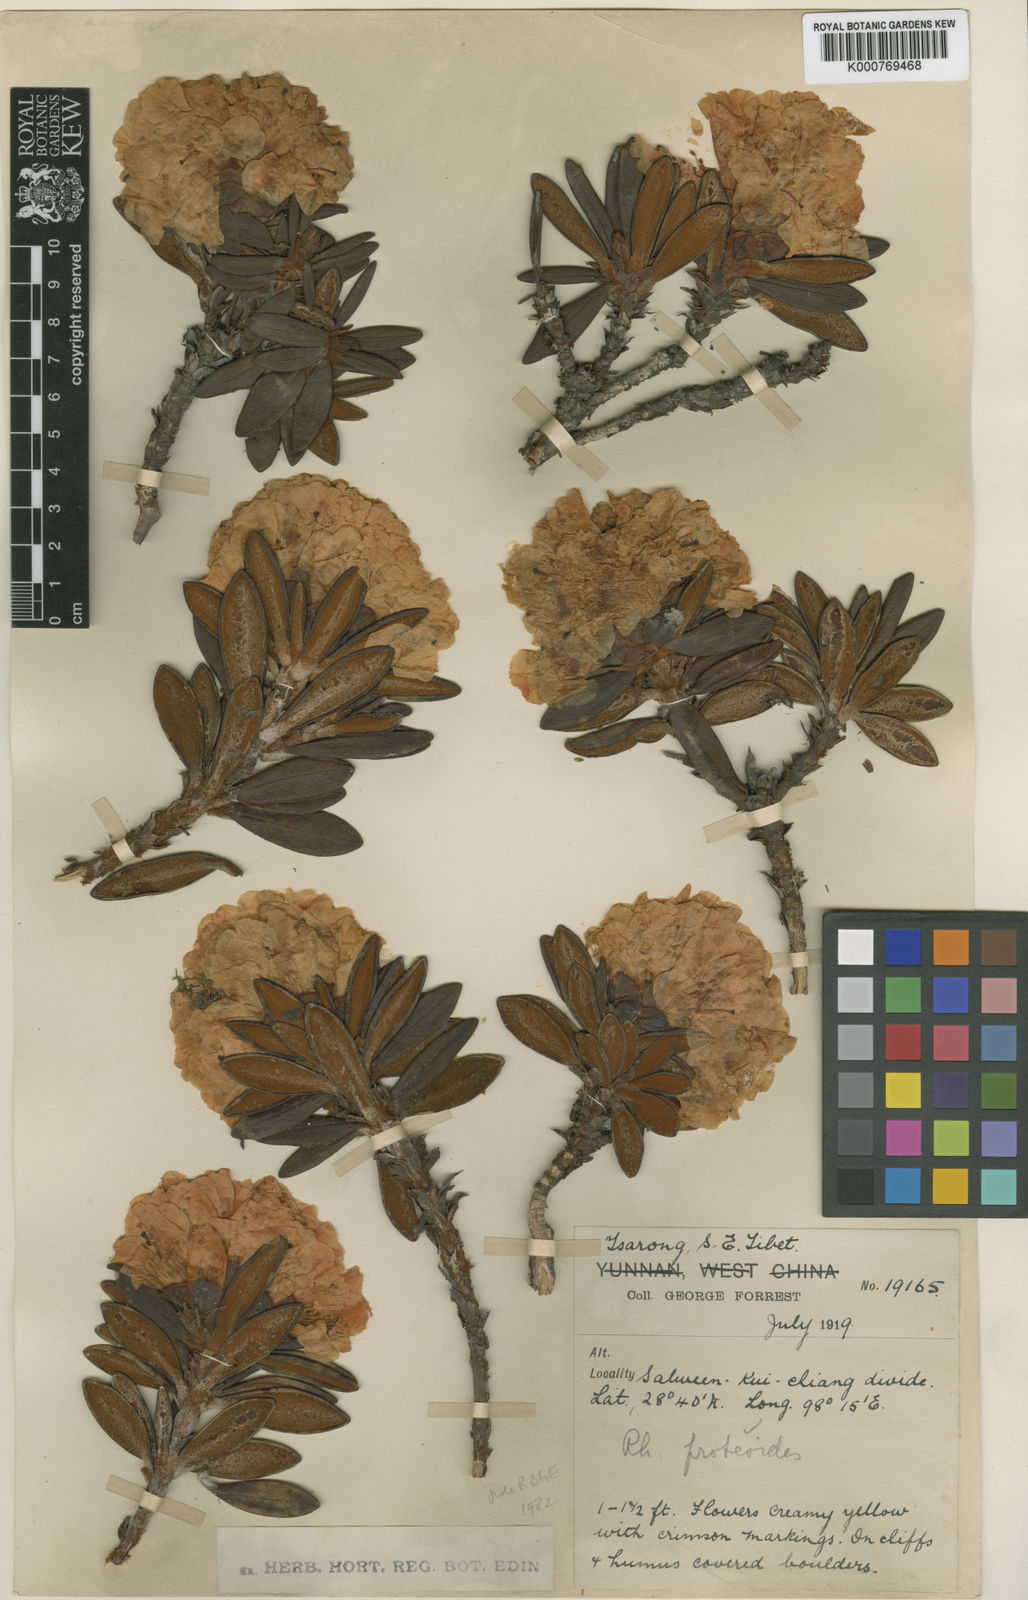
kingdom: Plantae
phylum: Tracheophyta
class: Magnoliopsida
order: Ericales
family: Ericaceae
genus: Rhododendron
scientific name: Rhododendron proteoides
